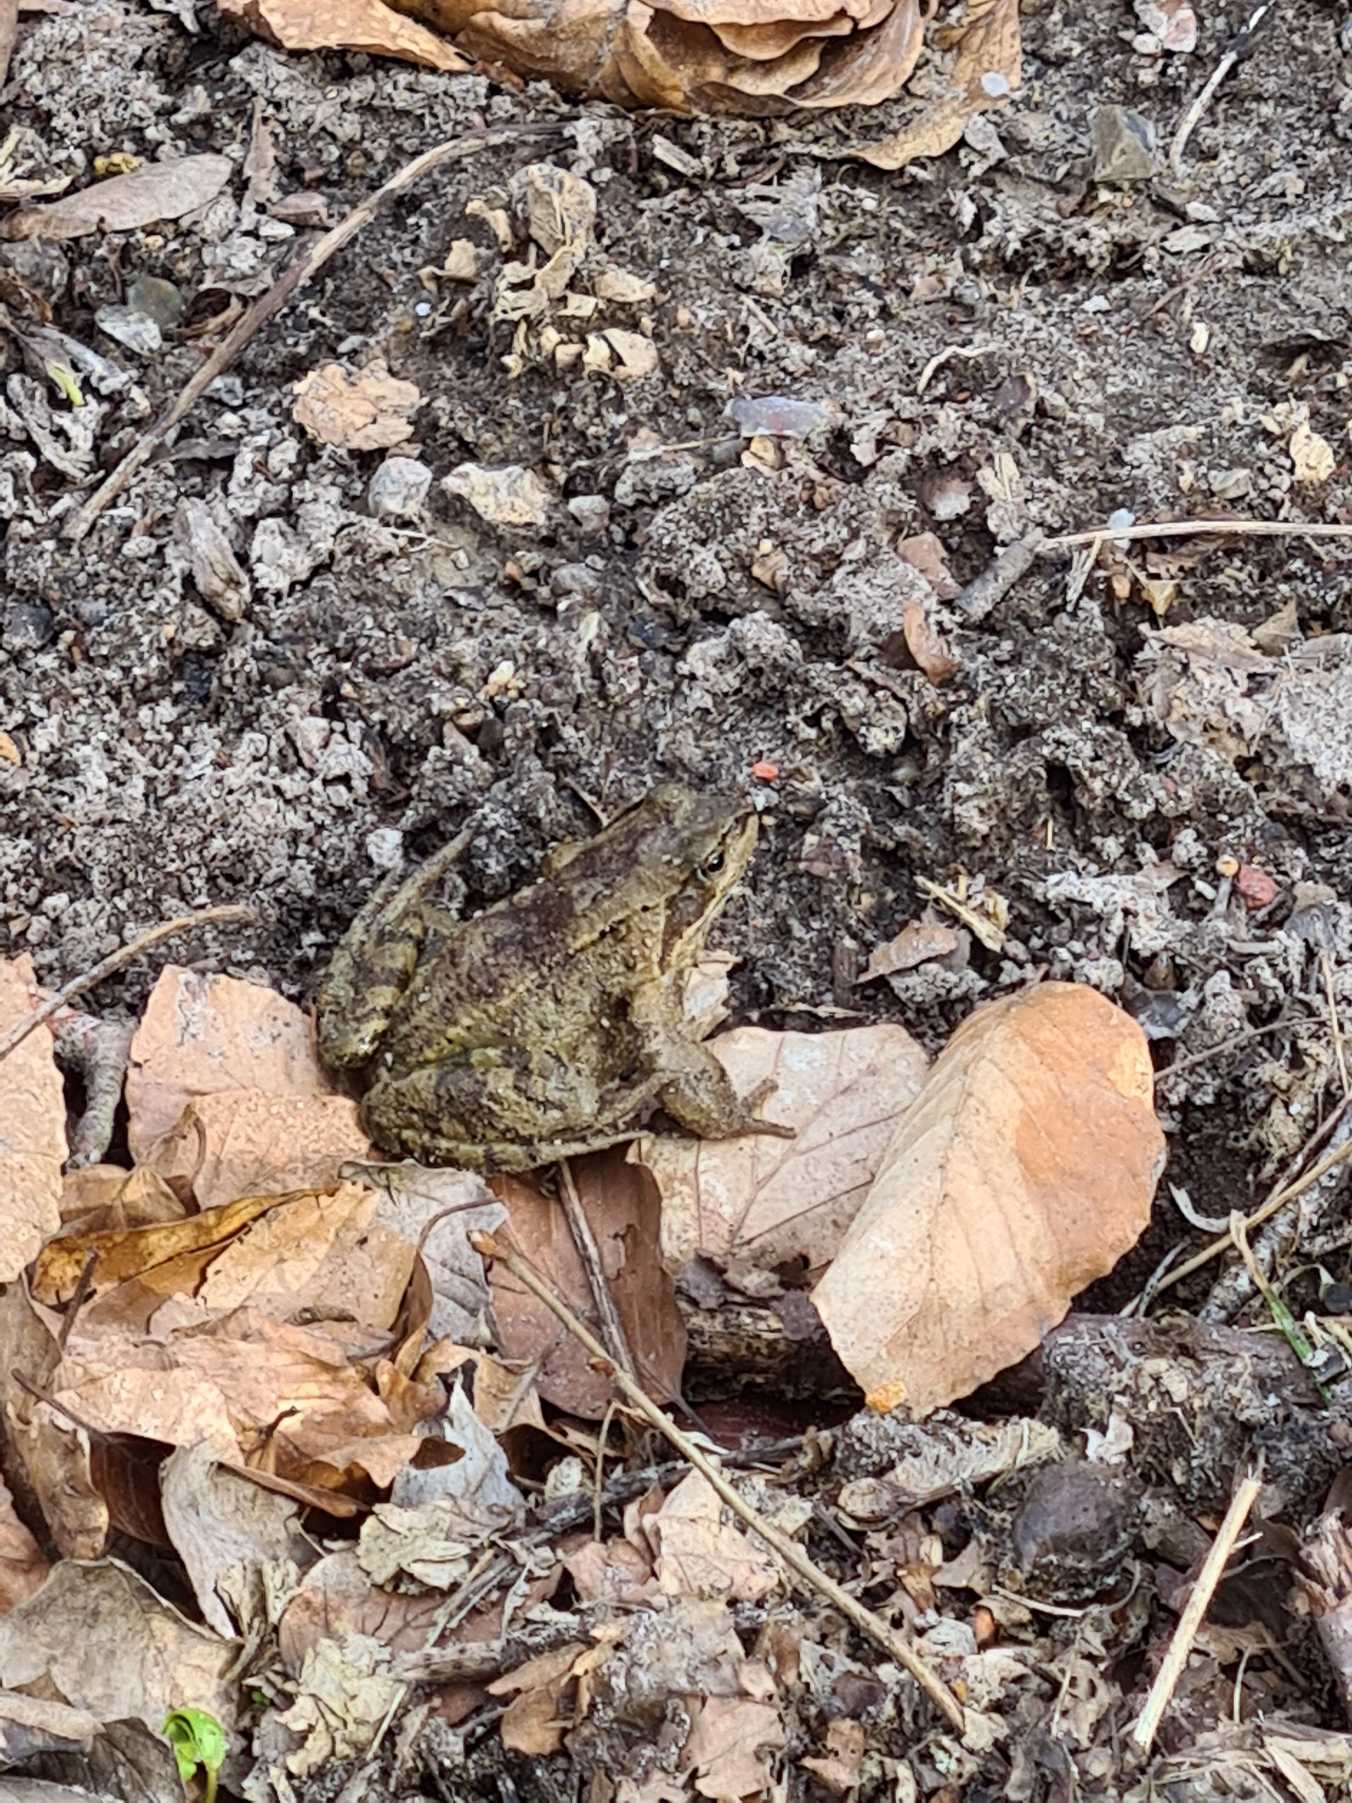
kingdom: Animalia
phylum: Chordata
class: Amphibia
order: Anura
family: Ranidae
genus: Rana
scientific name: Rana temporaria
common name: Butsnudet frø
